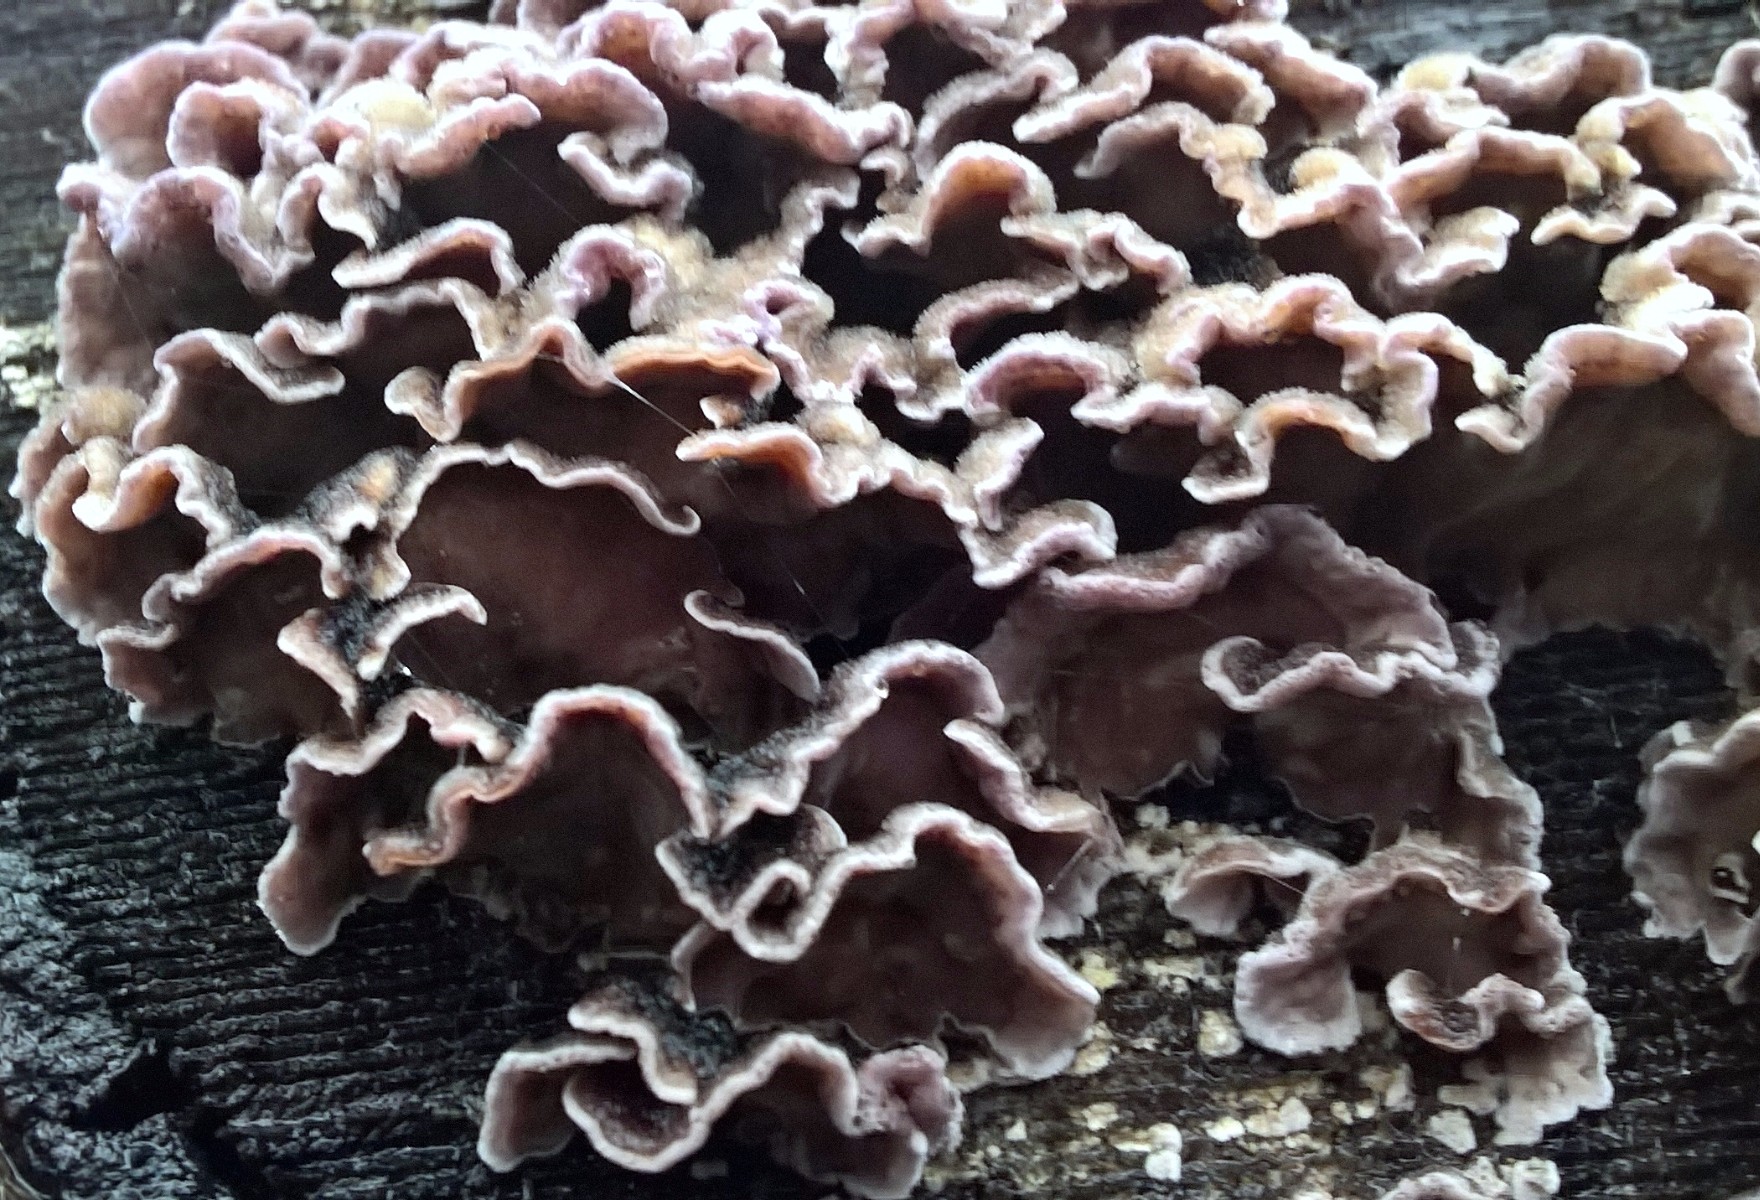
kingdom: Fungi
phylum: Basidiomycota
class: Agaricomycetes
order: Agaricales
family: Cyphellaceae
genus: Chondrostereum
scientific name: Chondrostereum purpureum
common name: purpurlædersvamp
